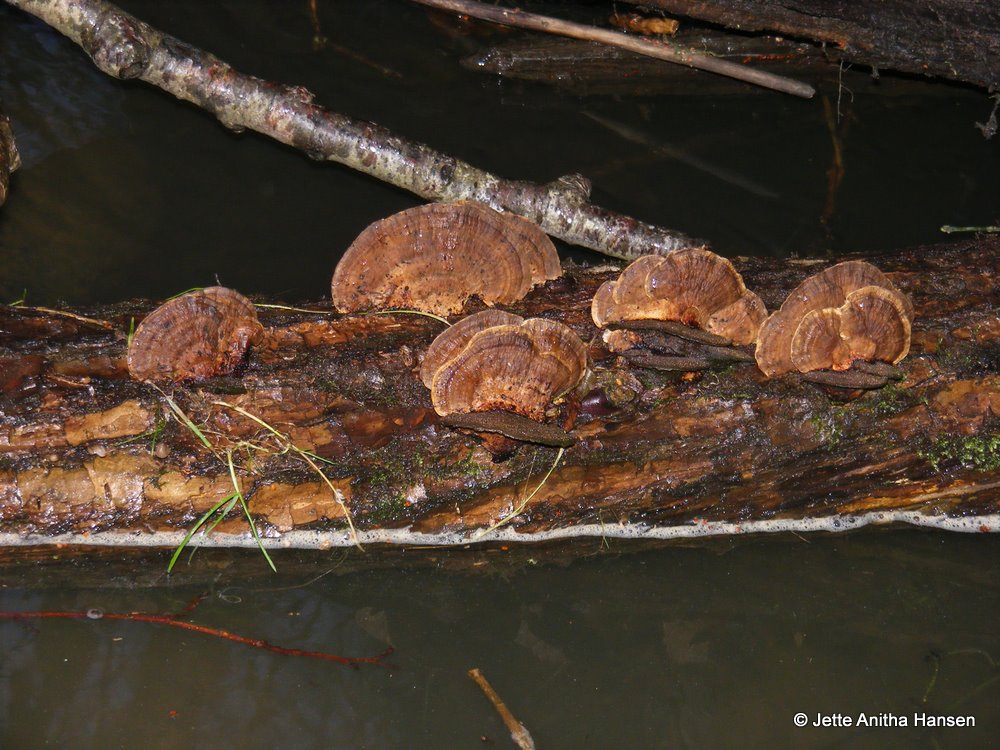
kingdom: Fungi
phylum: Basidiomycota
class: Agaricomycetes
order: Hymenochaetales
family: Hymenochaetaceae
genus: Xanthoporia
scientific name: Xanthoporia radiata
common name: elle-spejlporesvamp
